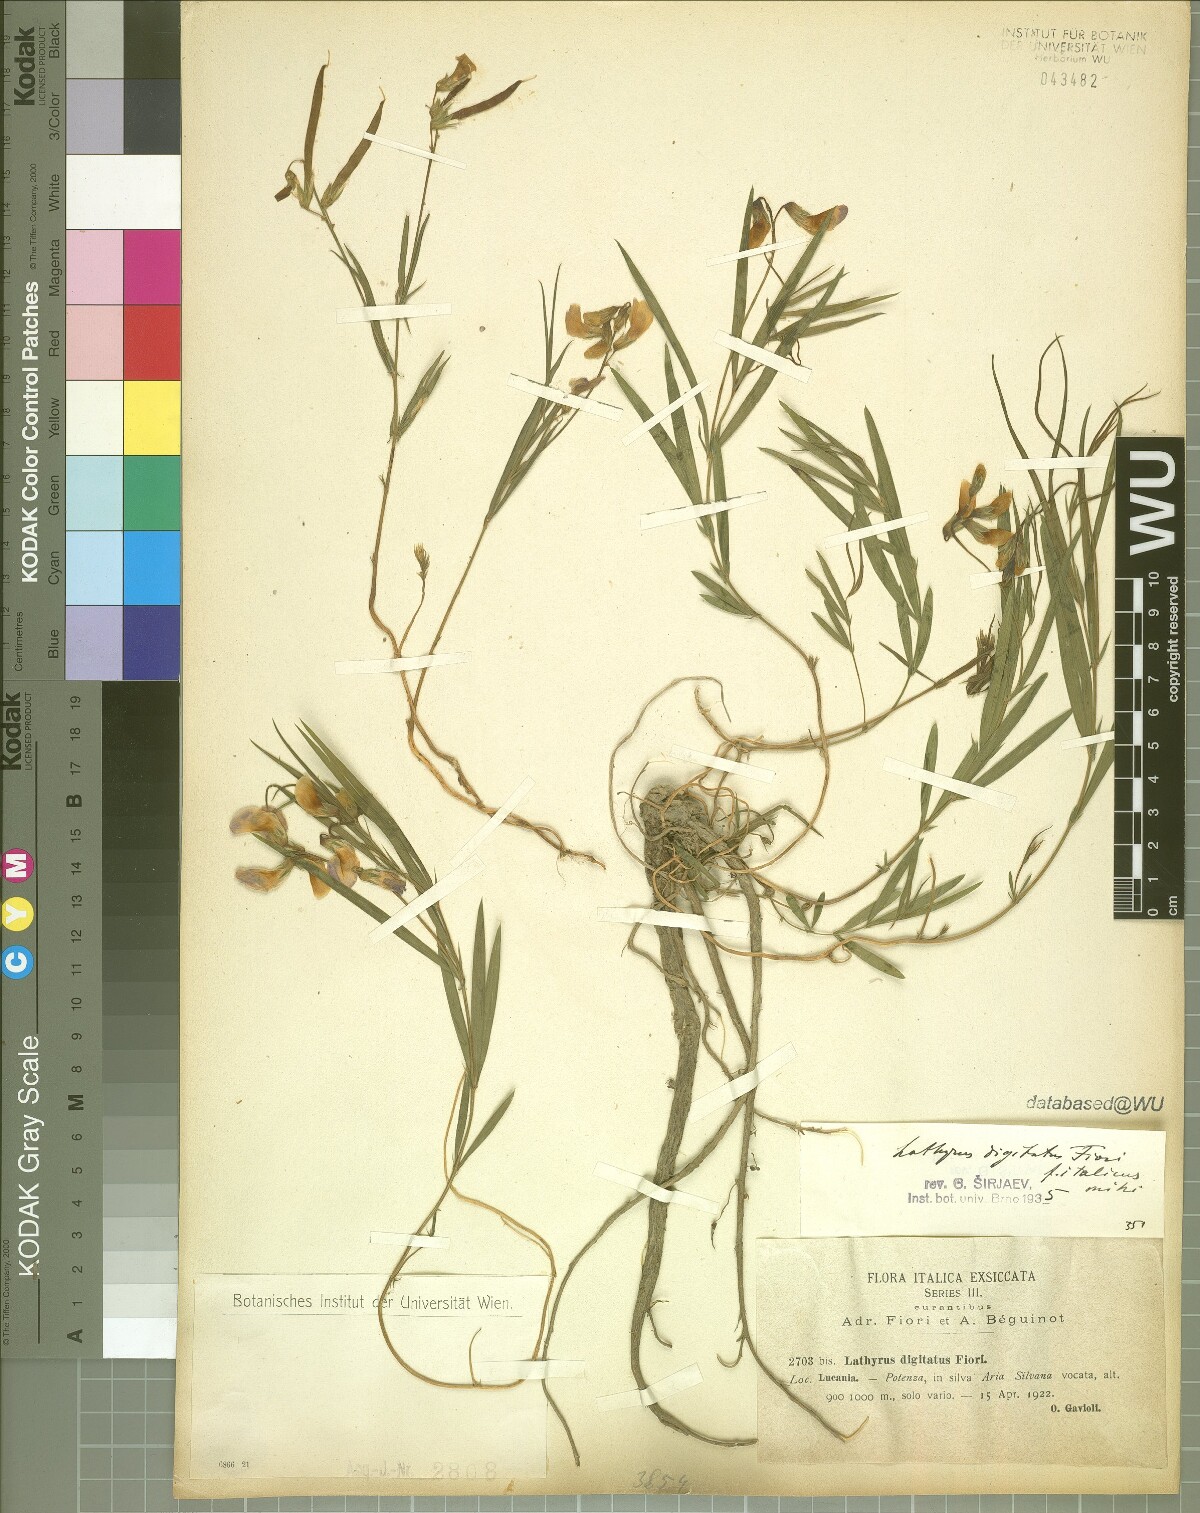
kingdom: Plantae
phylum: Tracheophyta
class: Magnoliopsida
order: Fabales
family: Fabaceae
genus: Lathyrus
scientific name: Lathyrus digitatus
